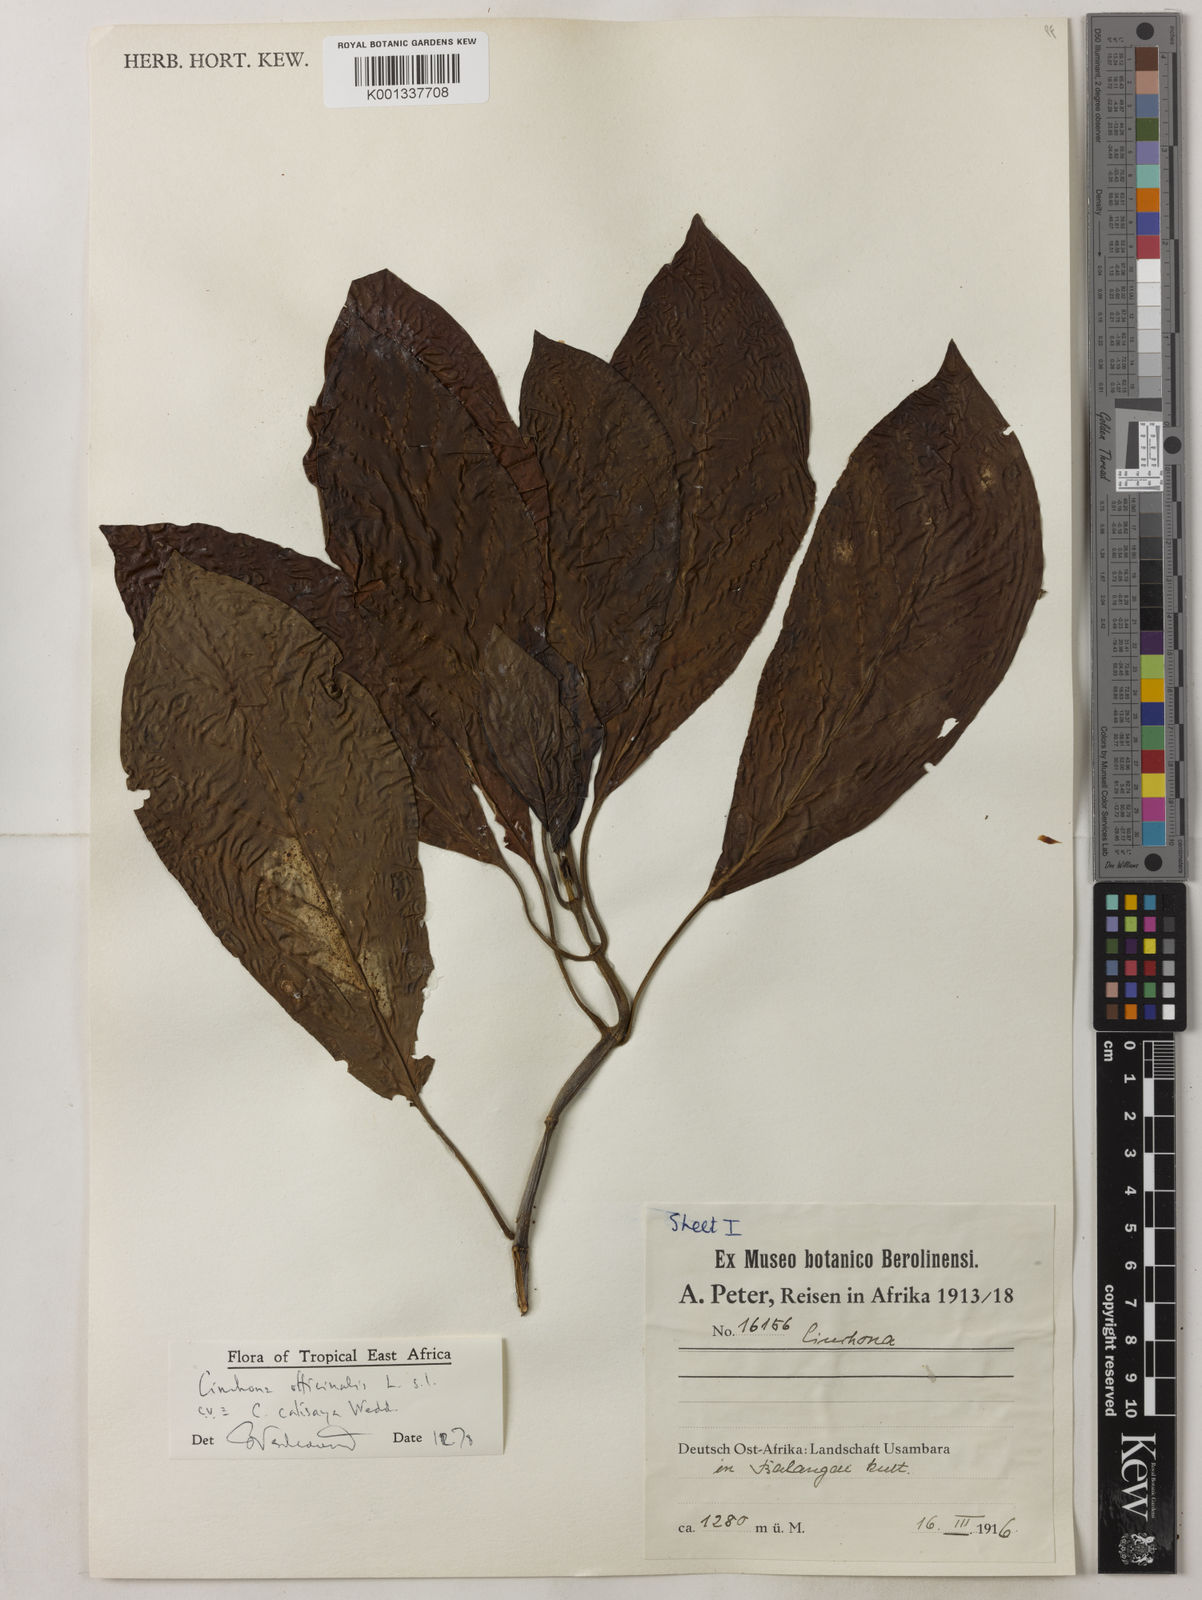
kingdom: Plantae
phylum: Tracheophyta
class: Magnoliopsida
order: Gentianales
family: Rubiaceae
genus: Cinchona
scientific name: Cinchona calisaya
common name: Ledgerbark
